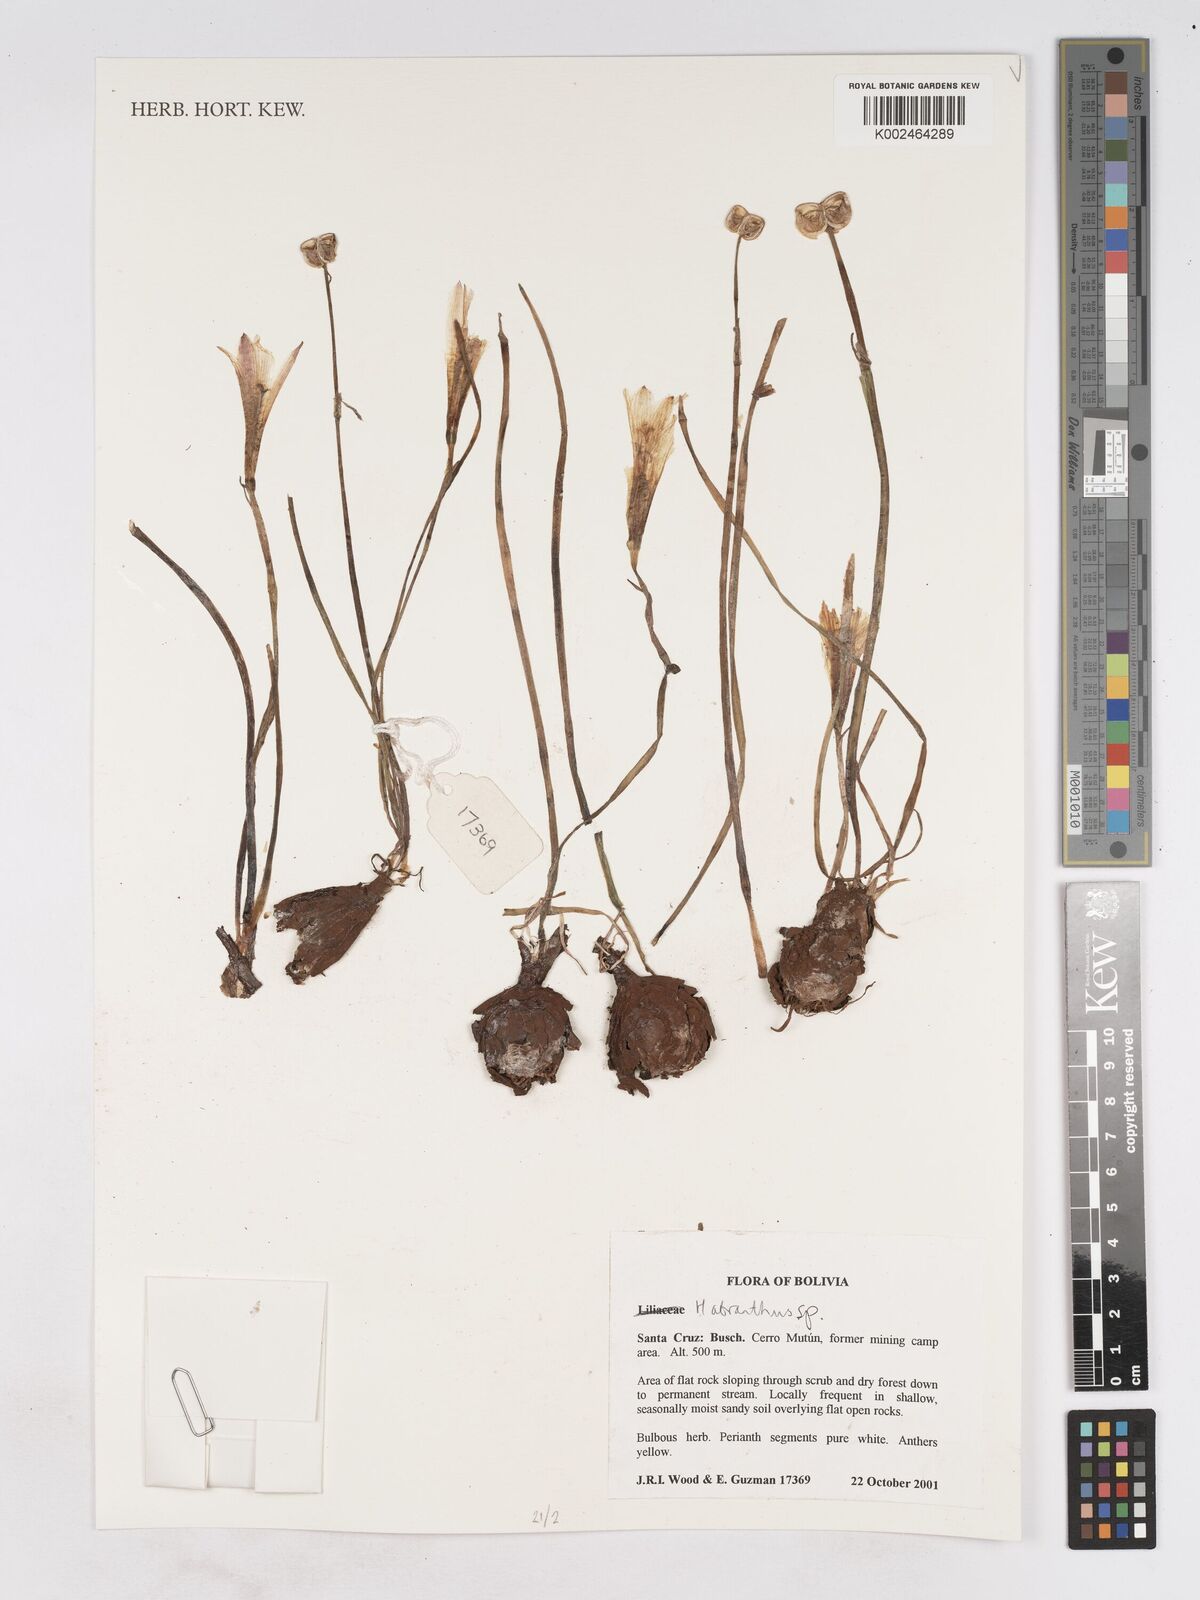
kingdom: Plantae
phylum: Tracheophyta
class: Liliopsida
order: Asparagales
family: Amaryllidaceae
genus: Zephyranthes
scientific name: Zephyranthes
